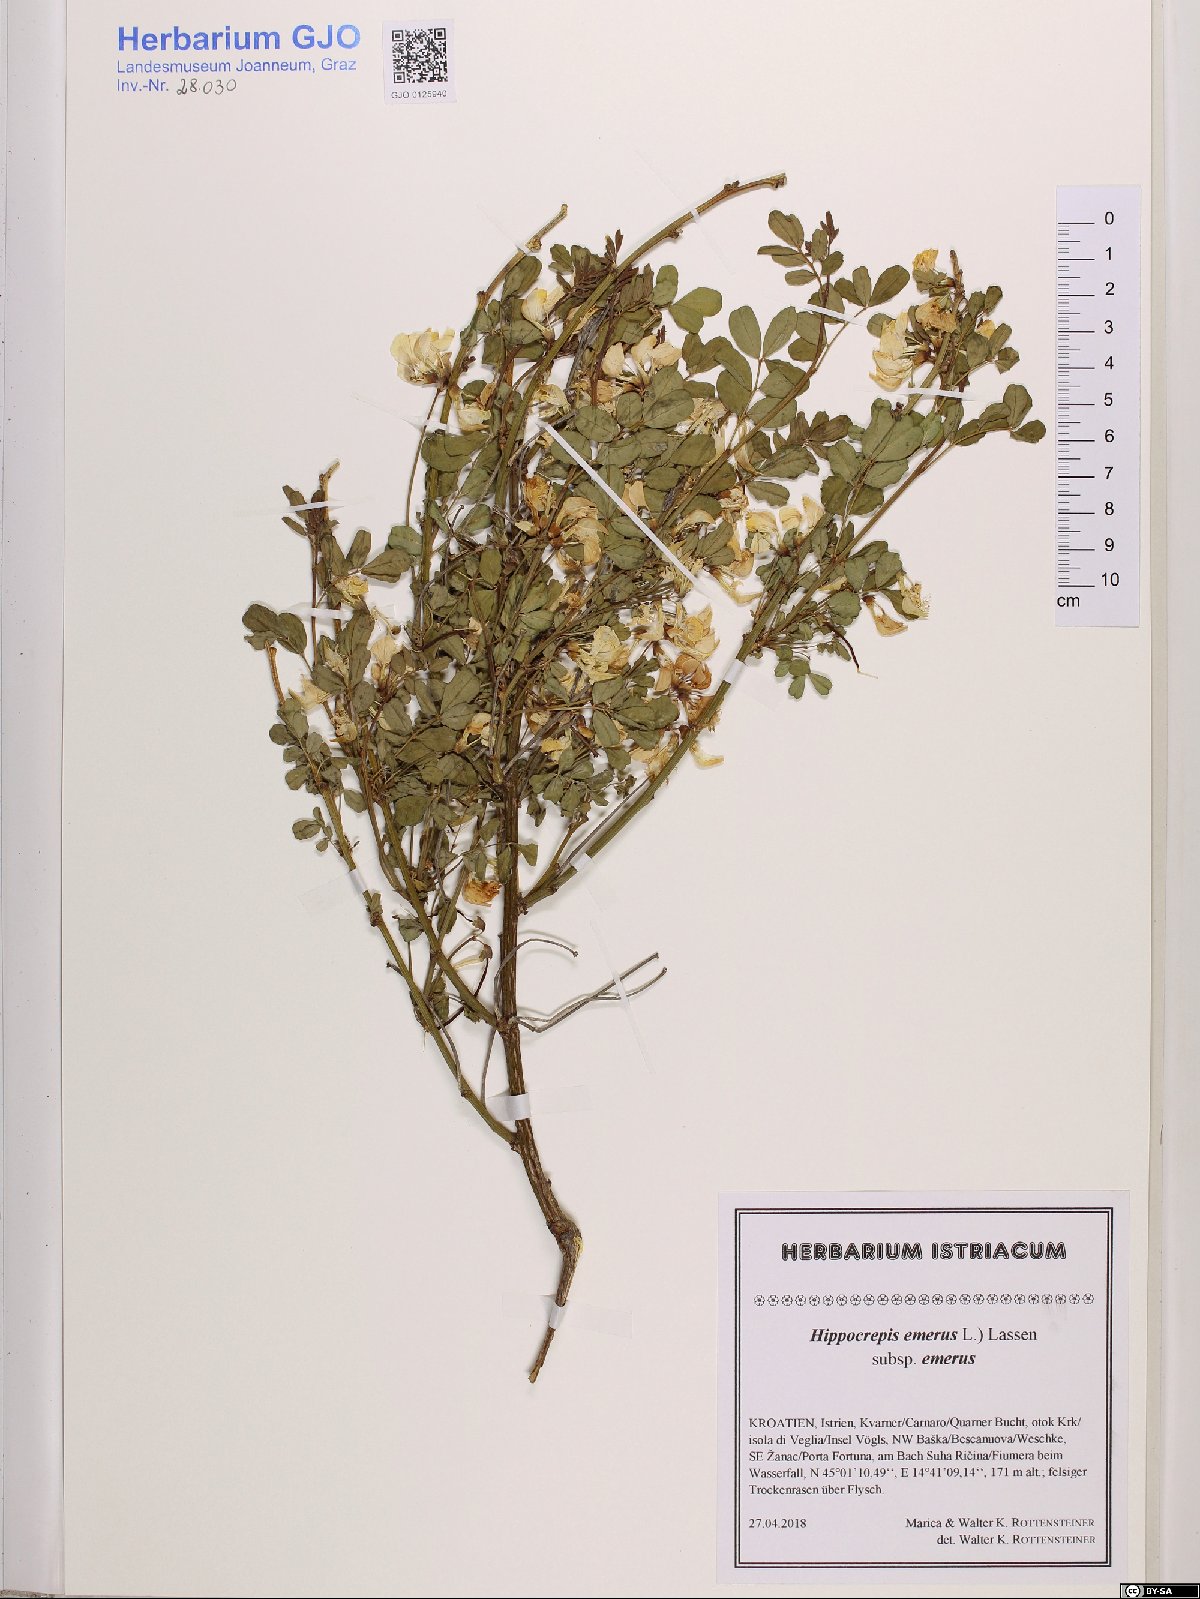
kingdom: Plantae
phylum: Tracheophyta
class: Magnoliopsida
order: Fabales
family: Fabaceae
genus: Hippocrepis
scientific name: Hippocrepis emerus
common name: Scorpion senna
